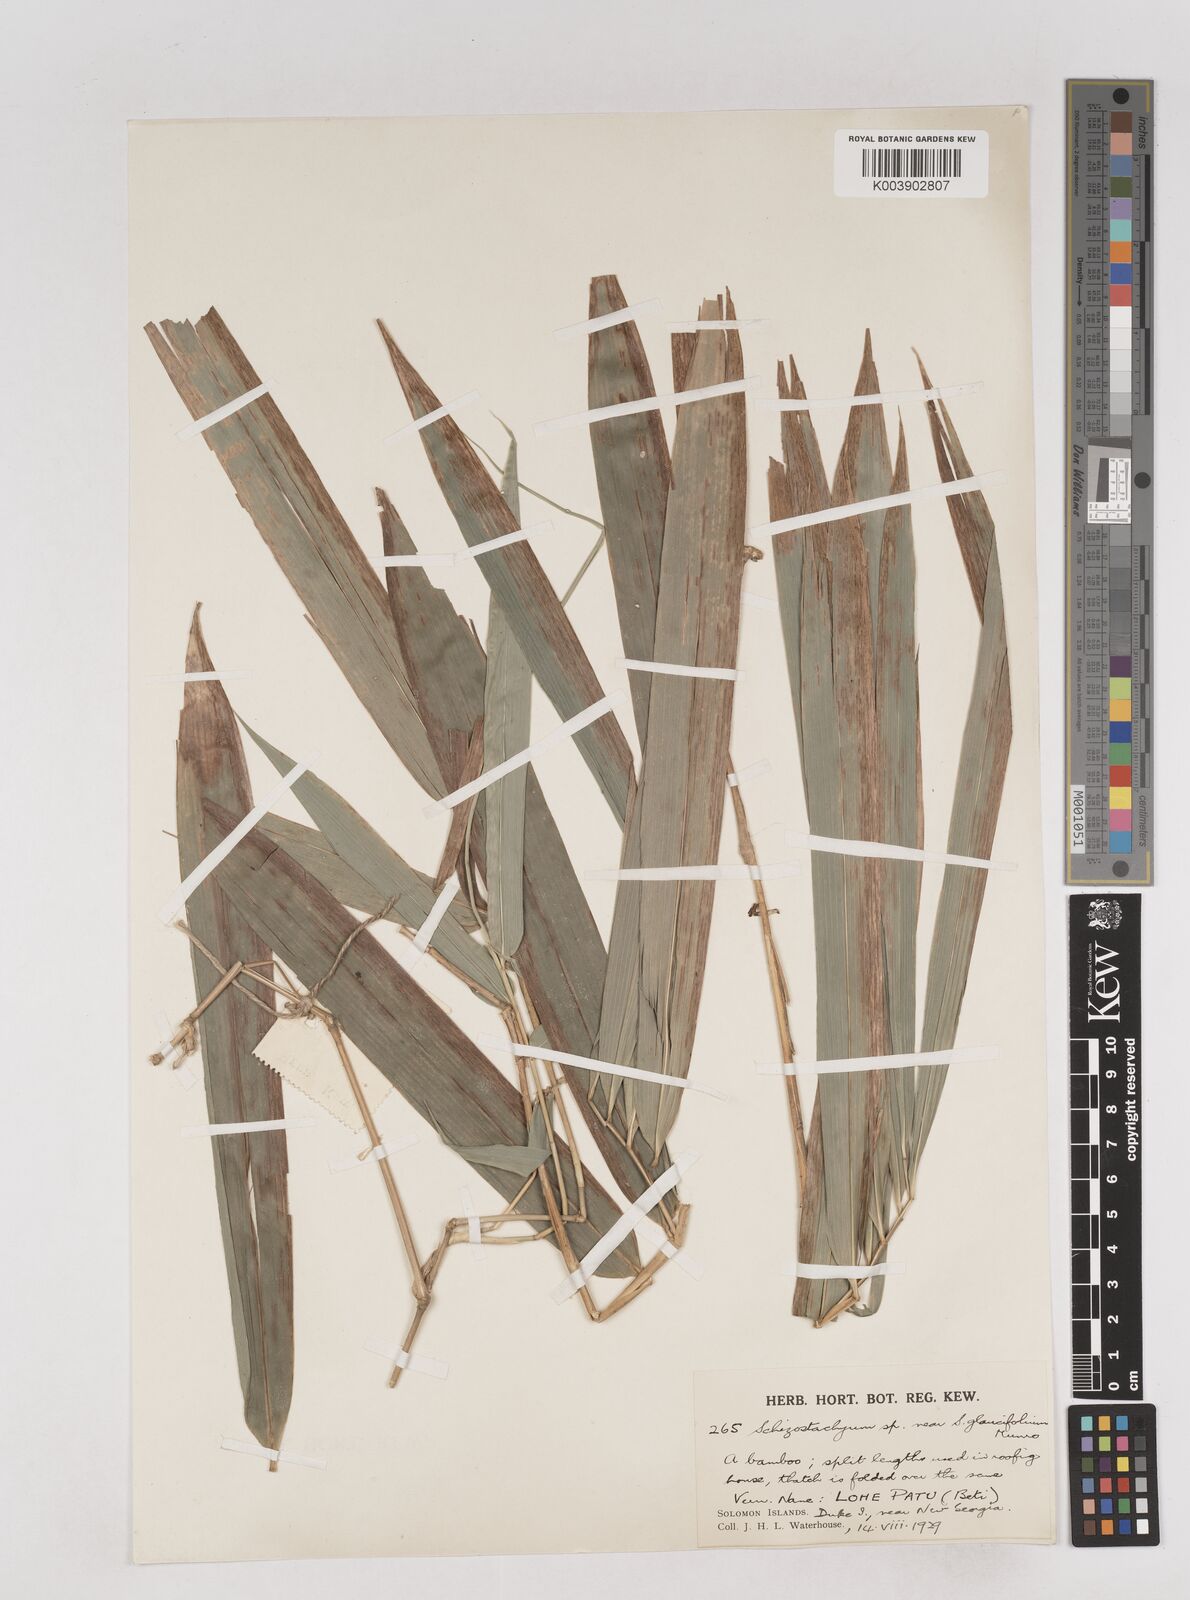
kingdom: Plantae
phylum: Tracheophyta
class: Liliopsida
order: Poales
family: Poaceae
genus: Schizostachyum
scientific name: Schizostachyum
